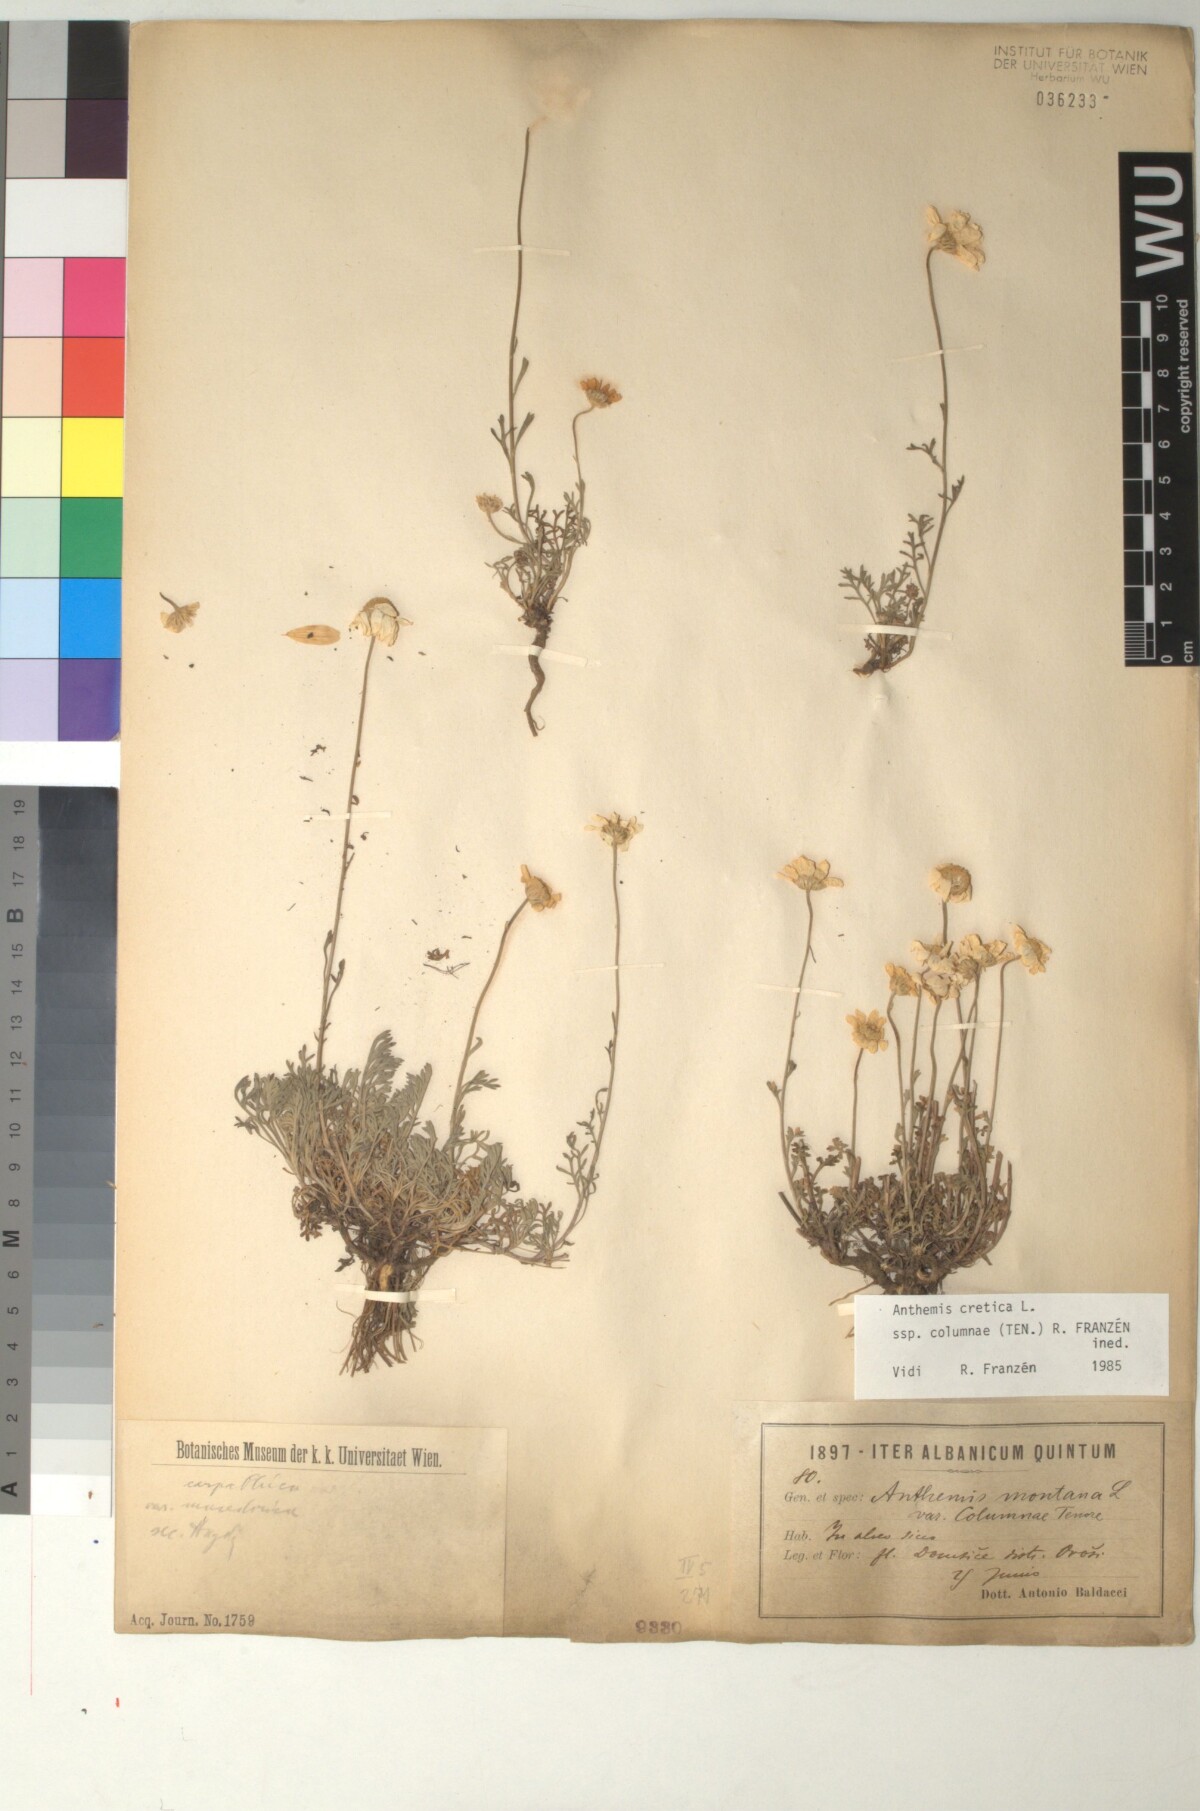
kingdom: Plantae
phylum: Tracheophyta
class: Magnoliopsida
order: Asterales
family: Asteraceae
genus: Anthemis
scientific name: Anthemis cretica
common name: Mountain dog-daisy
